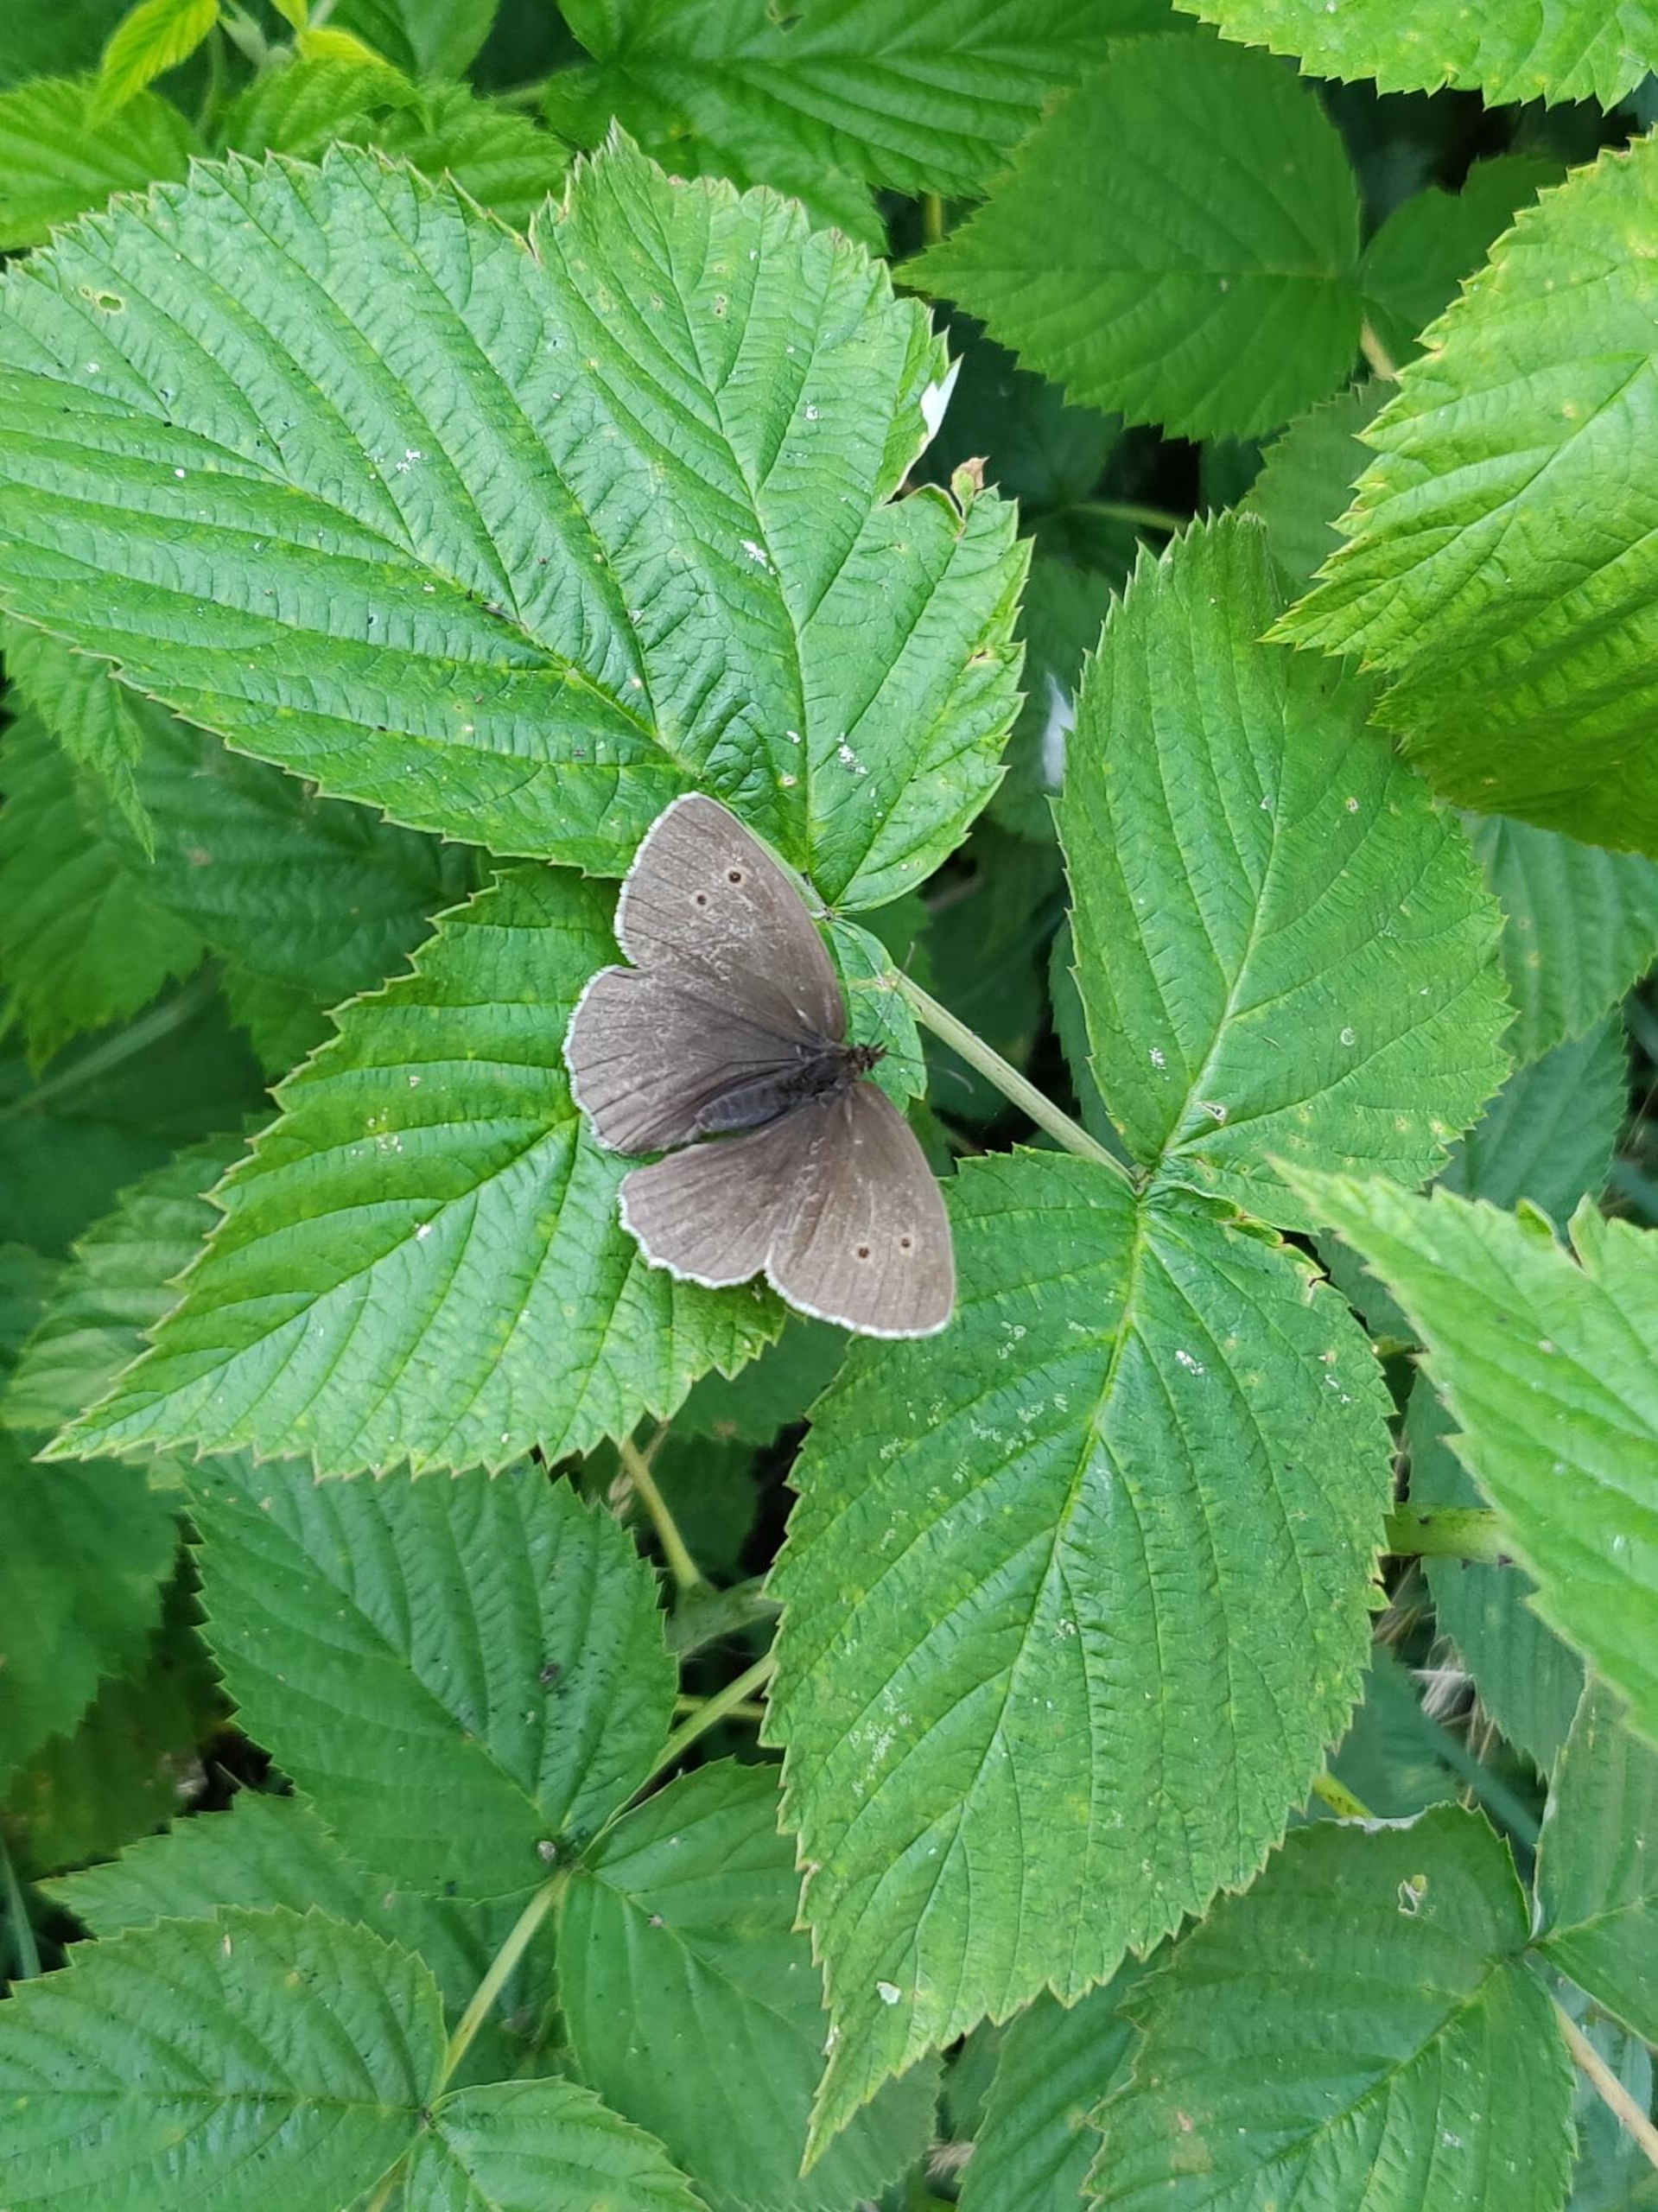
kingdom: Animalia
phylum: Arthropoda
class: Insecta
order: Lepidoptera
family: Nymphalidae
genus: Aphantopus
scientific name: Aphantopus hyperantus
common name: Engrandøje
